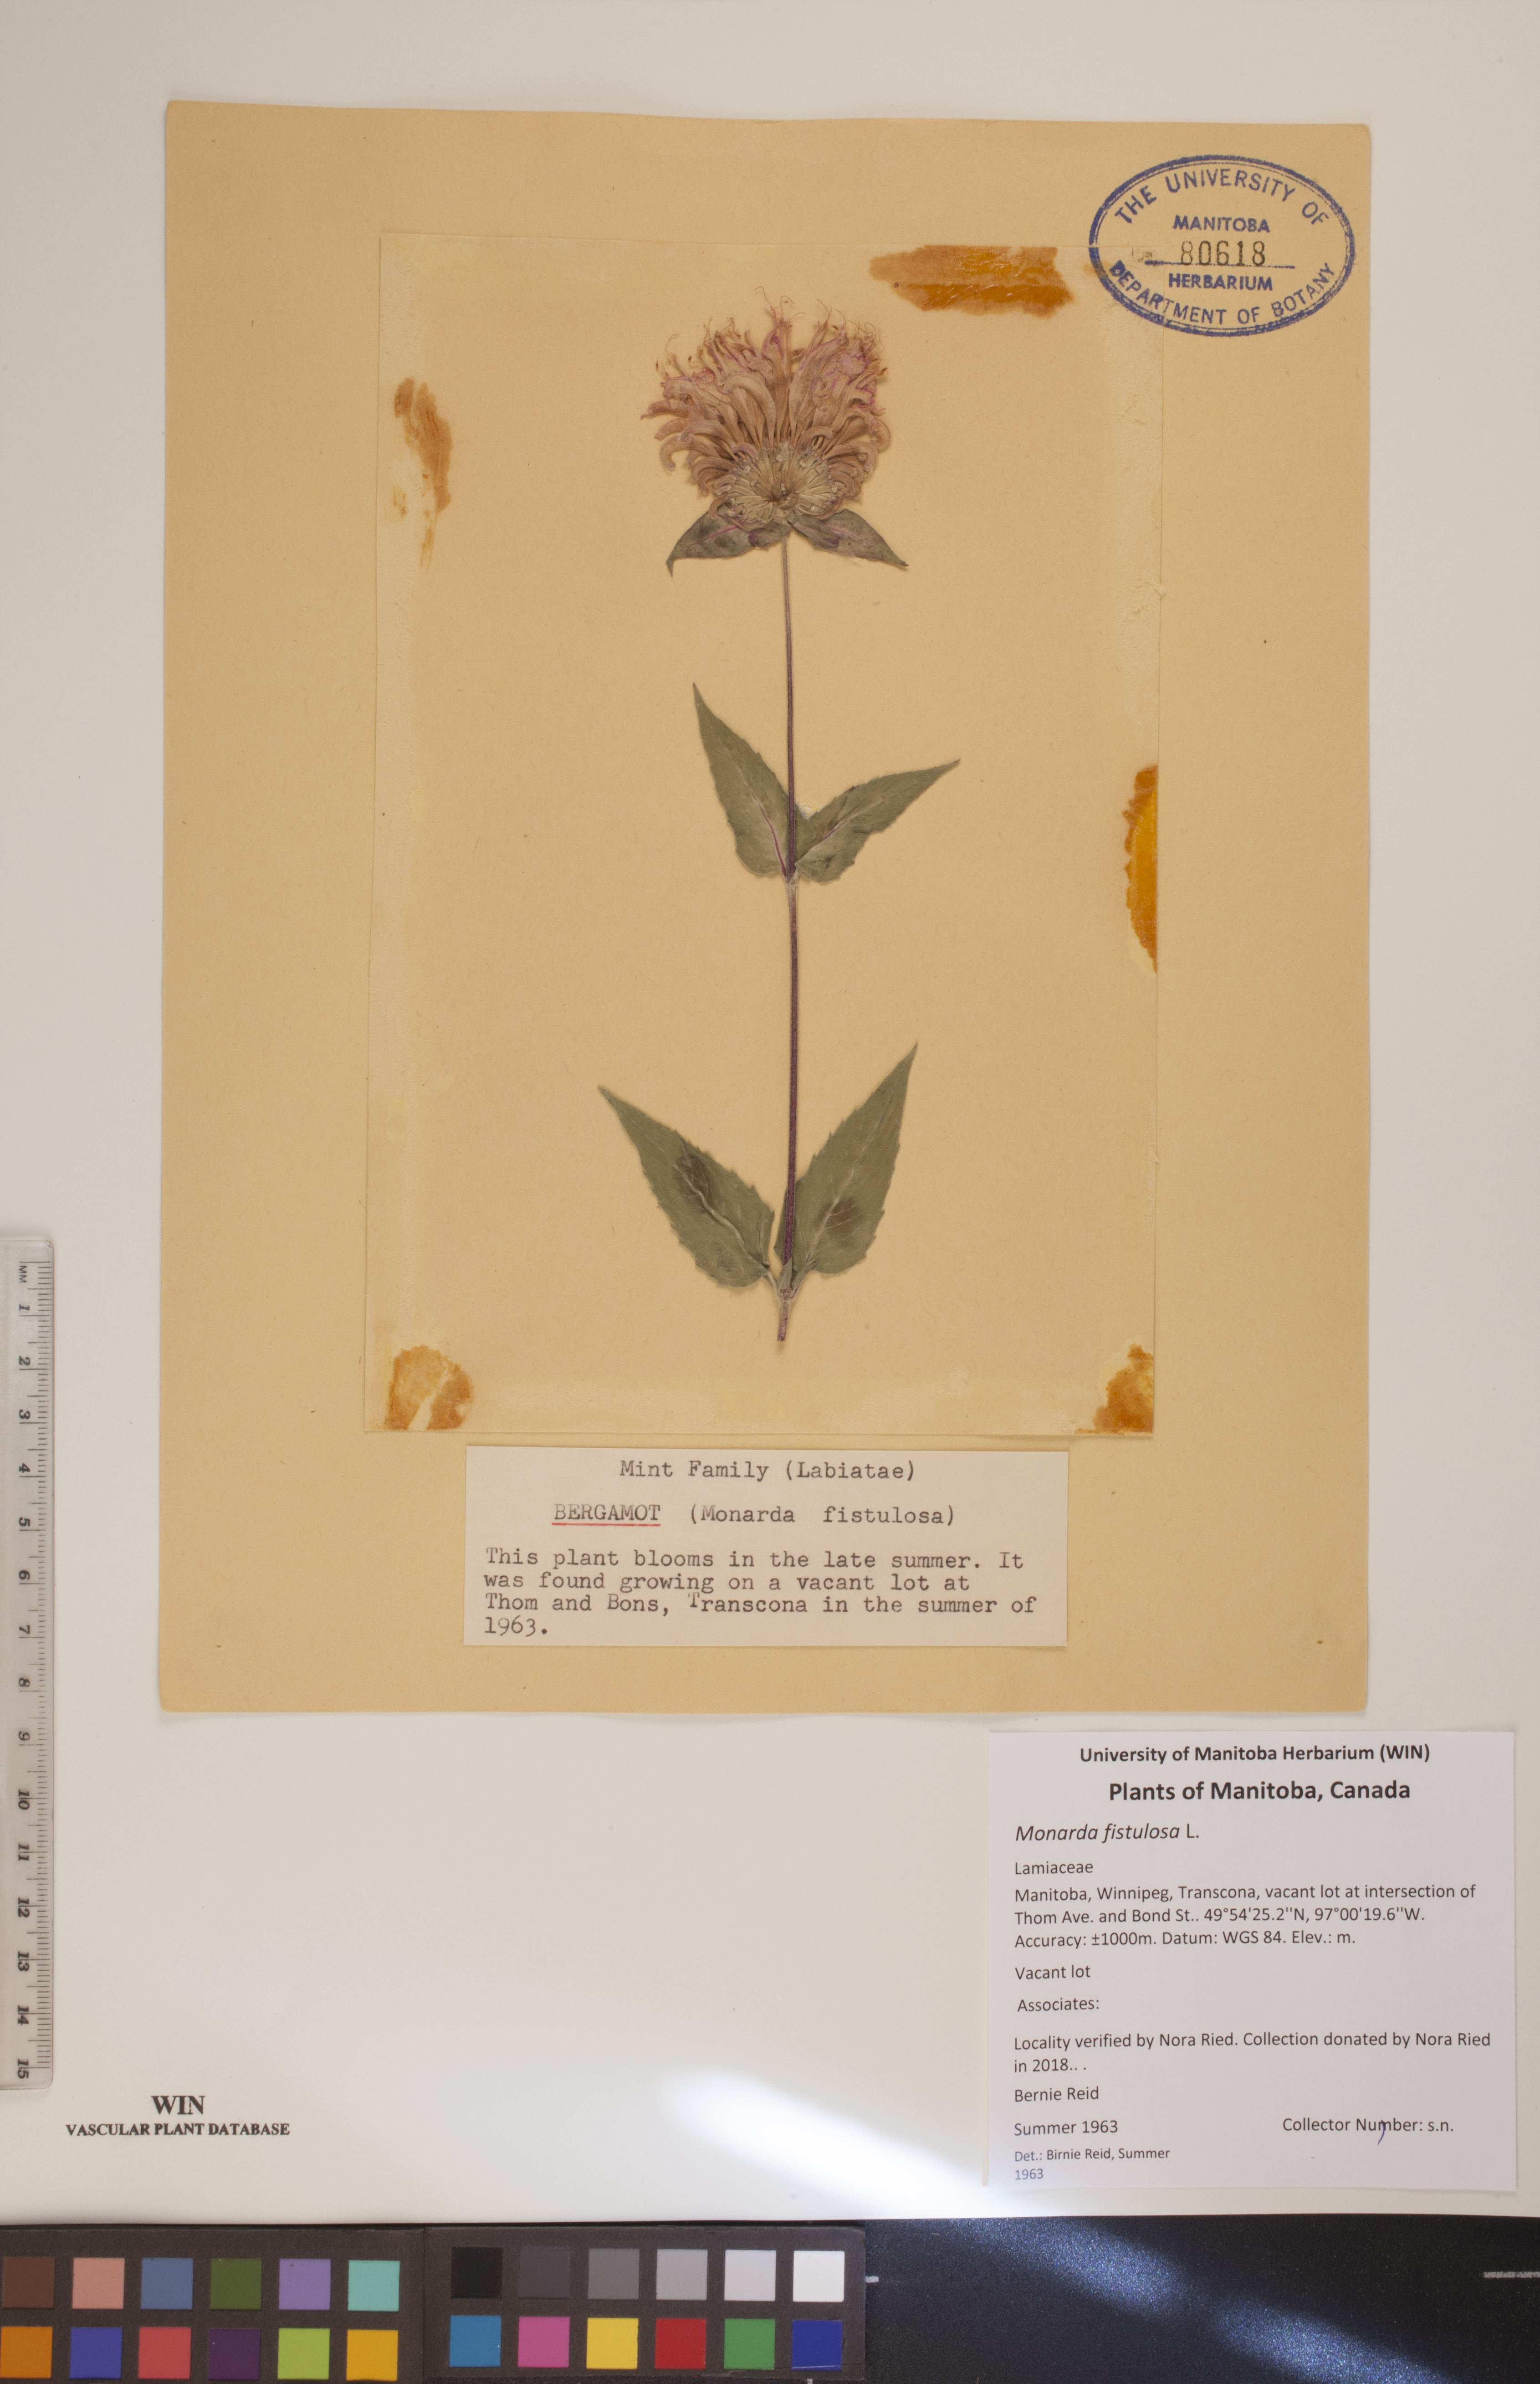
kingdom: Plantae
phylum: Tracheophyta
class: Magnoliopsida
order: Lamiales
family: Lamiaceae
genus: Monarda
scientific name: Monarda fistulosa
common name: Purple beebalm
